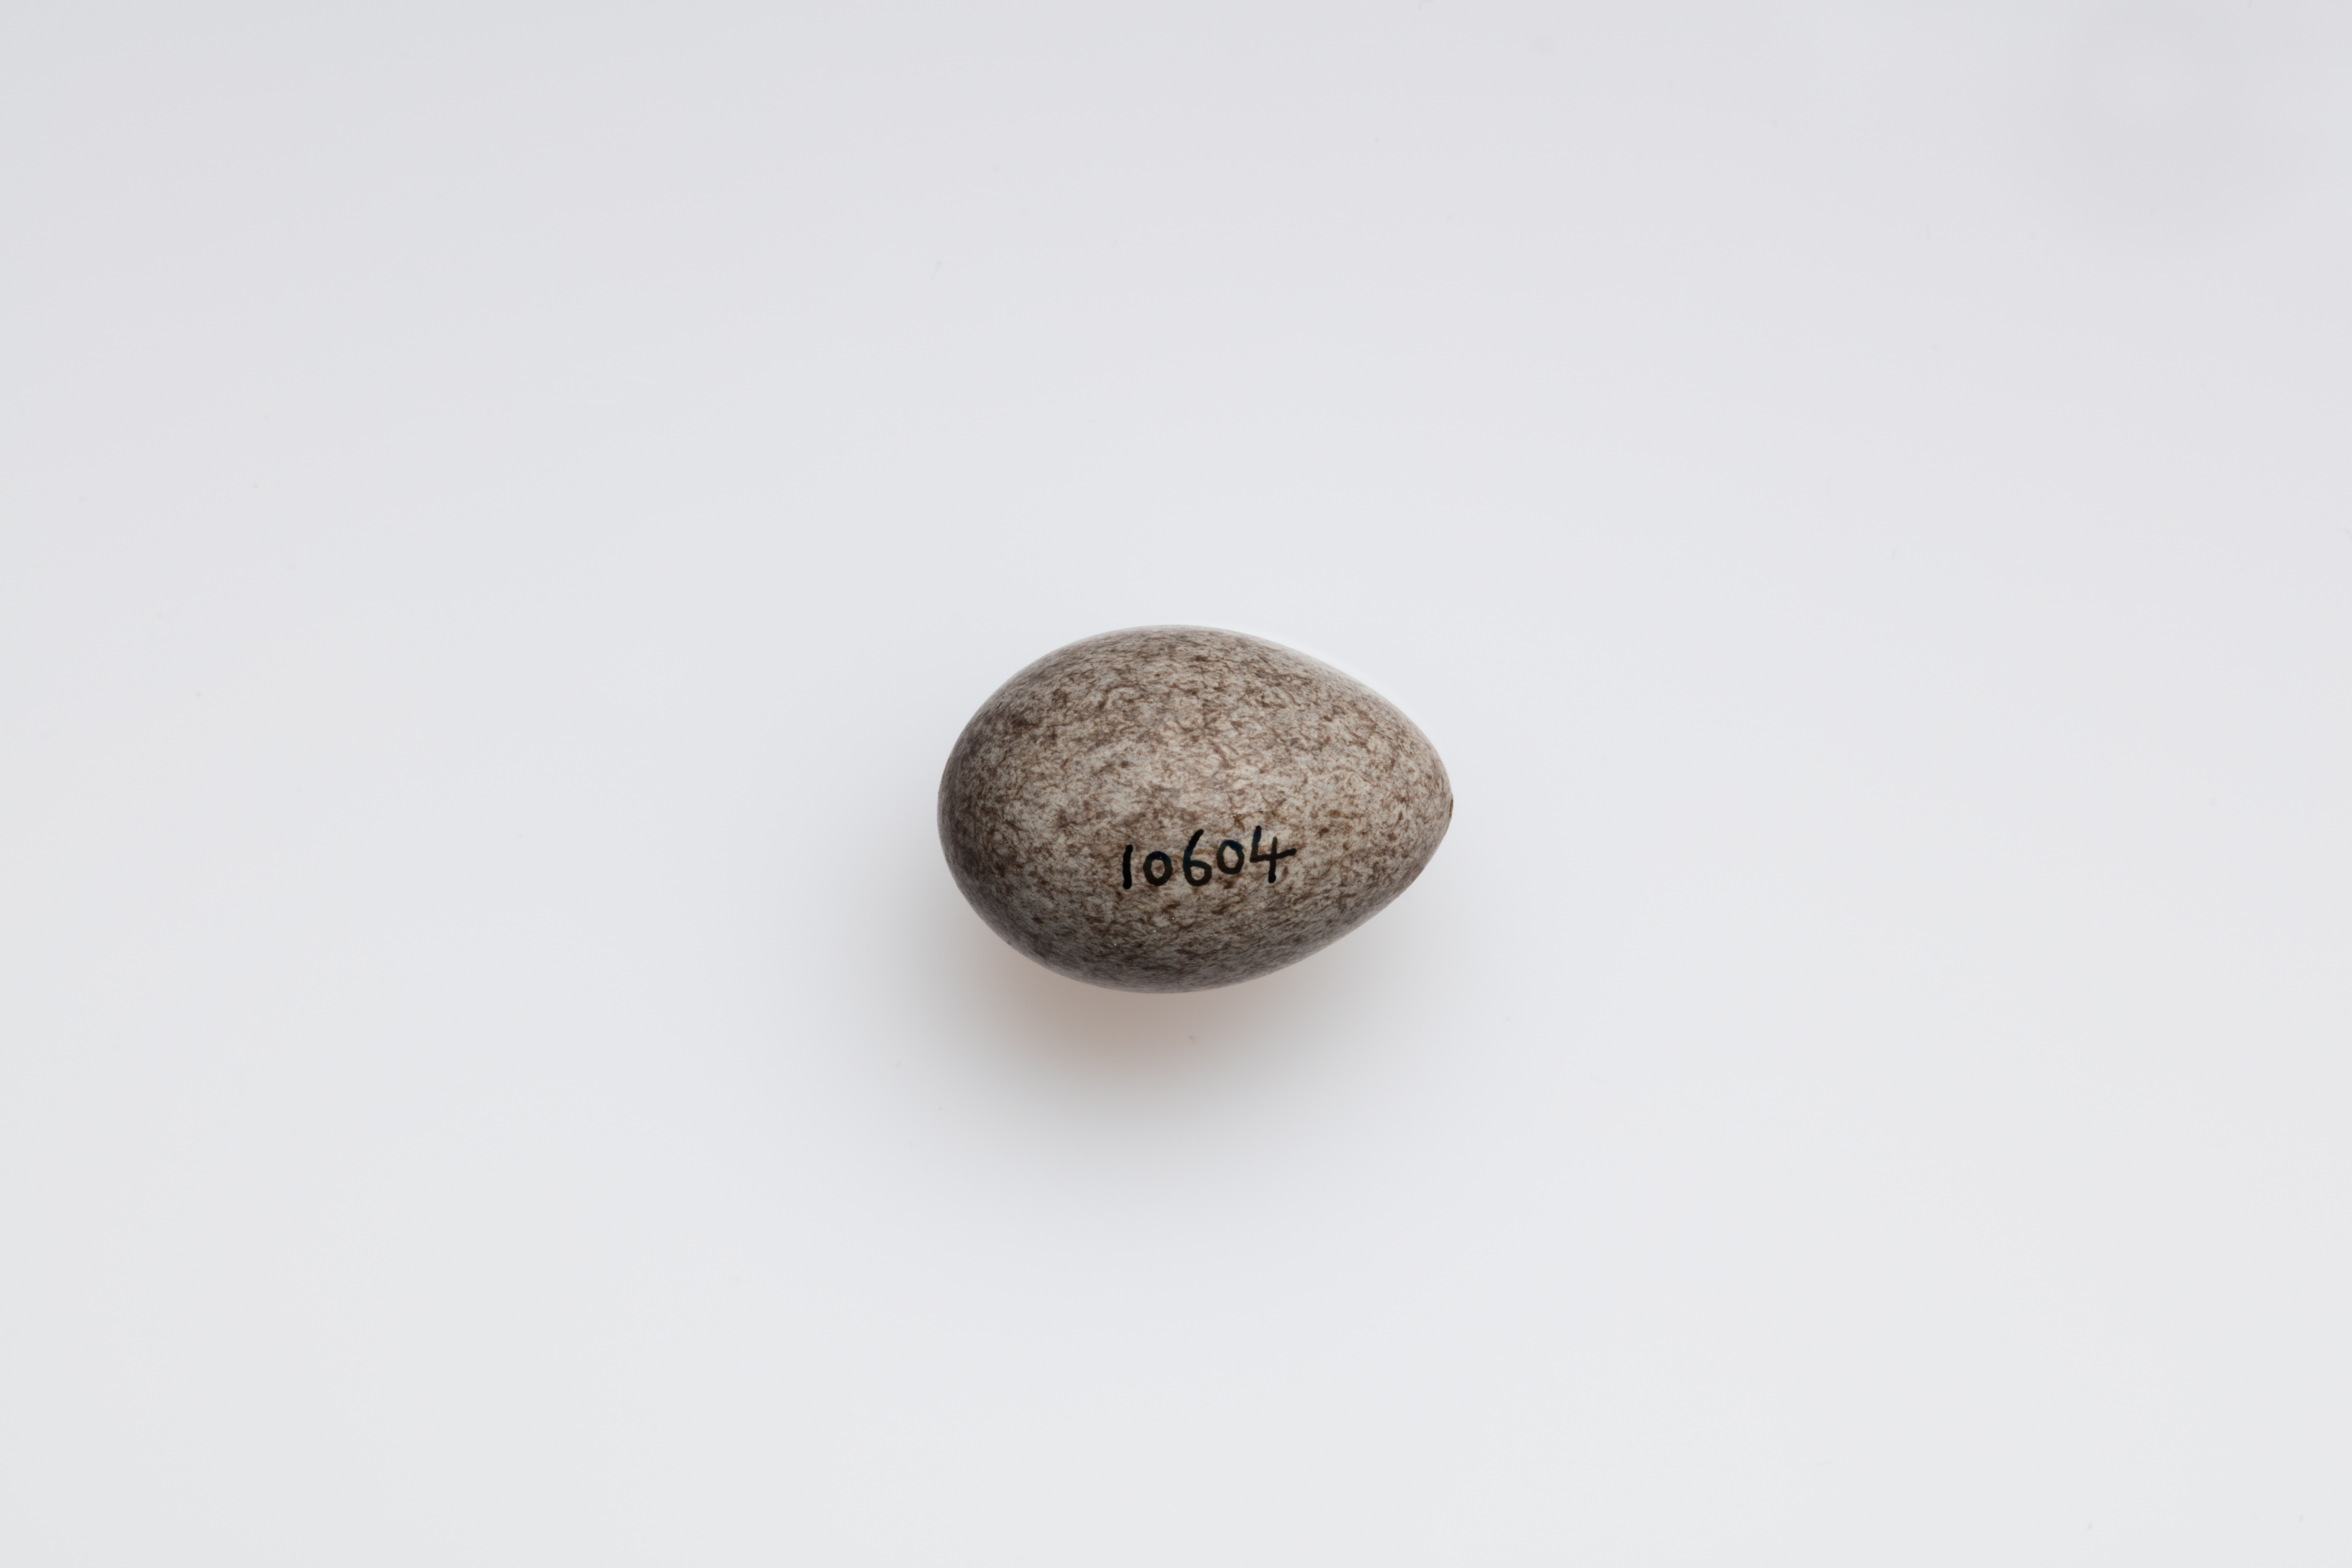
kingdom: Animalia
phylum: Chordata
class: Aves
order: Passeriformes
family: Motacillidae
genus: Anthus
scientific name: Anthus spinoletta
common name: Water pipit
